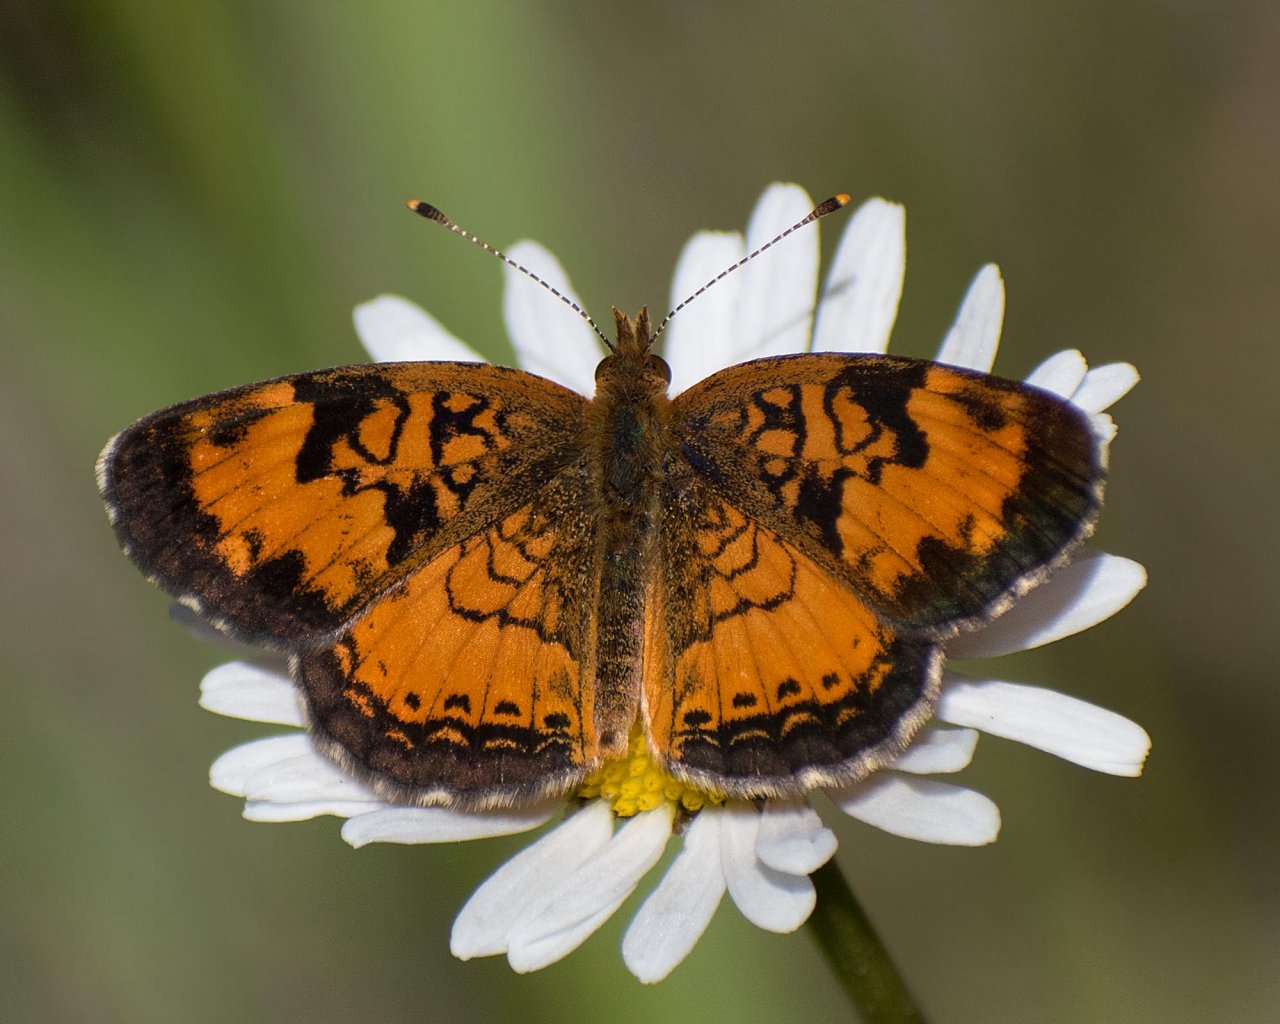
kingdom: Animalia
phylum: Arthropoda
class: Insecta
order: Lepidoptera
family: Nymphalidae
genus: Phyciodes
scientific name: Phyciodes tharos
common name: Northern Crescent
